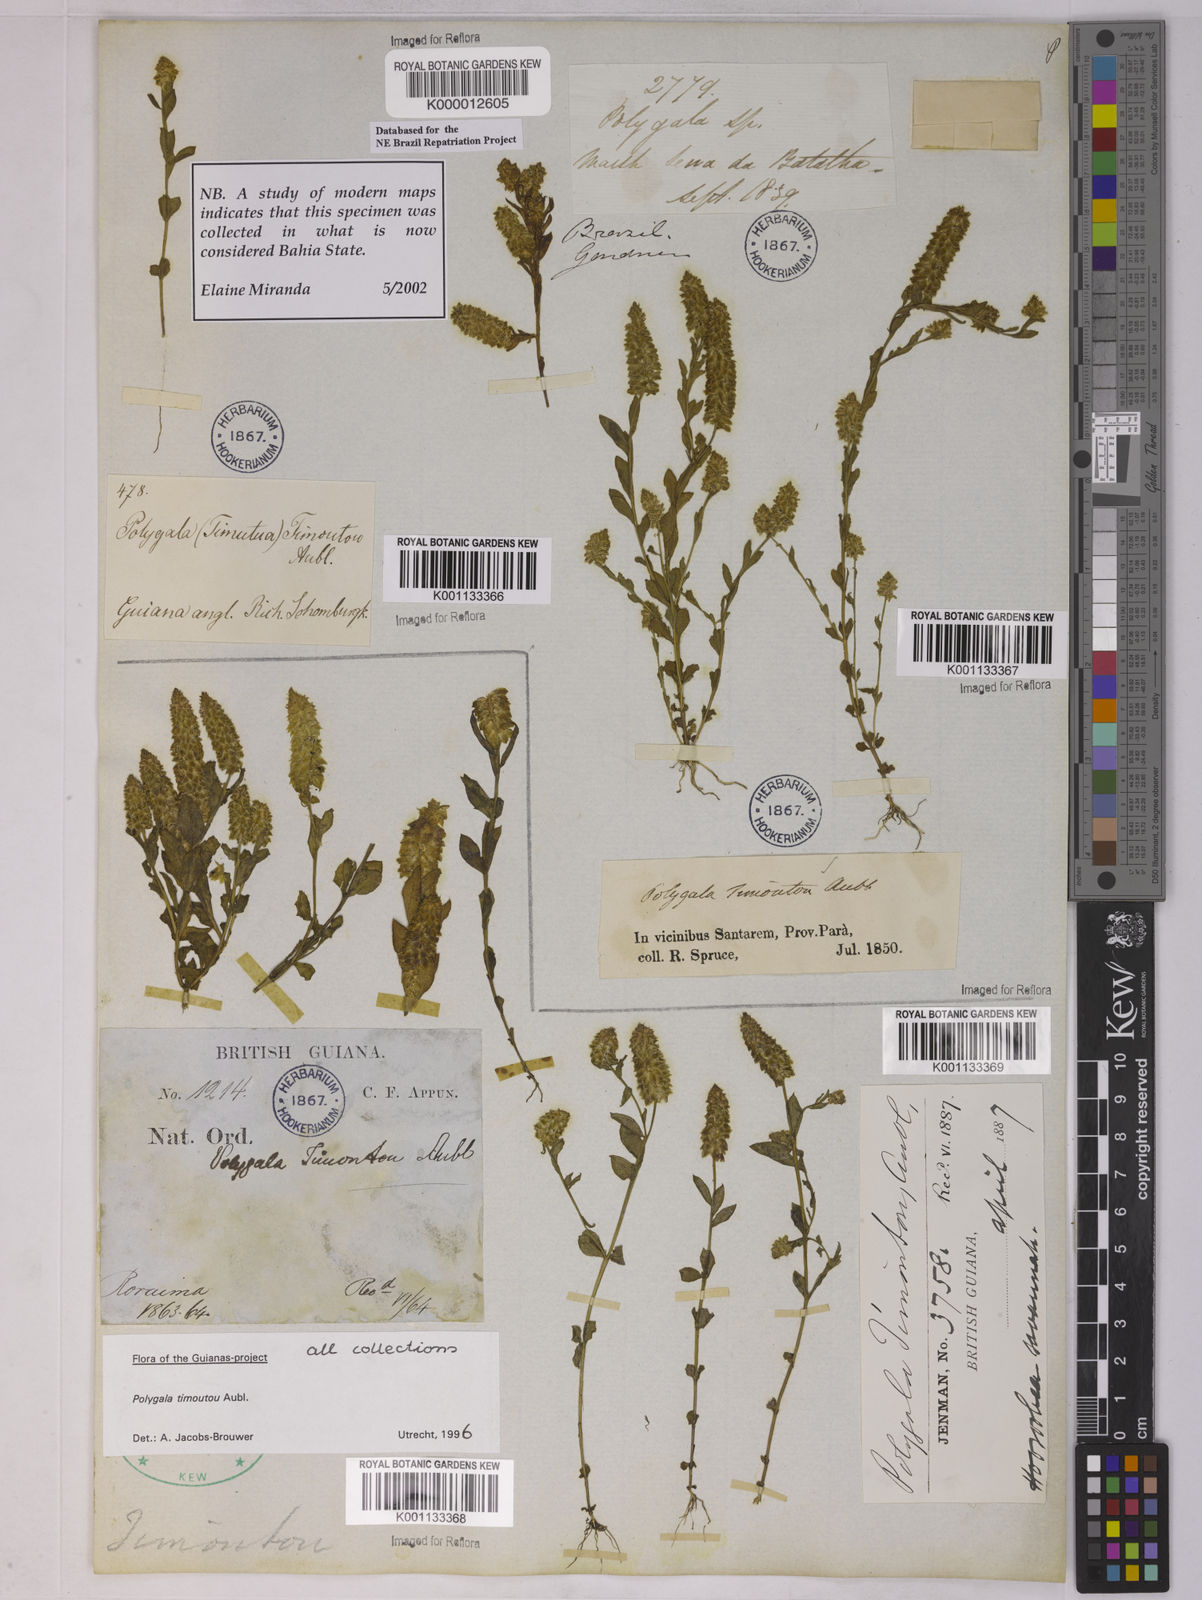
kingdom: Plantae
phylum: Tracheophyta
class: Magnoliopsida
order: Fabales
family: Polygalaceae
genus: Polygala
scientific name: Polygala timoutou
